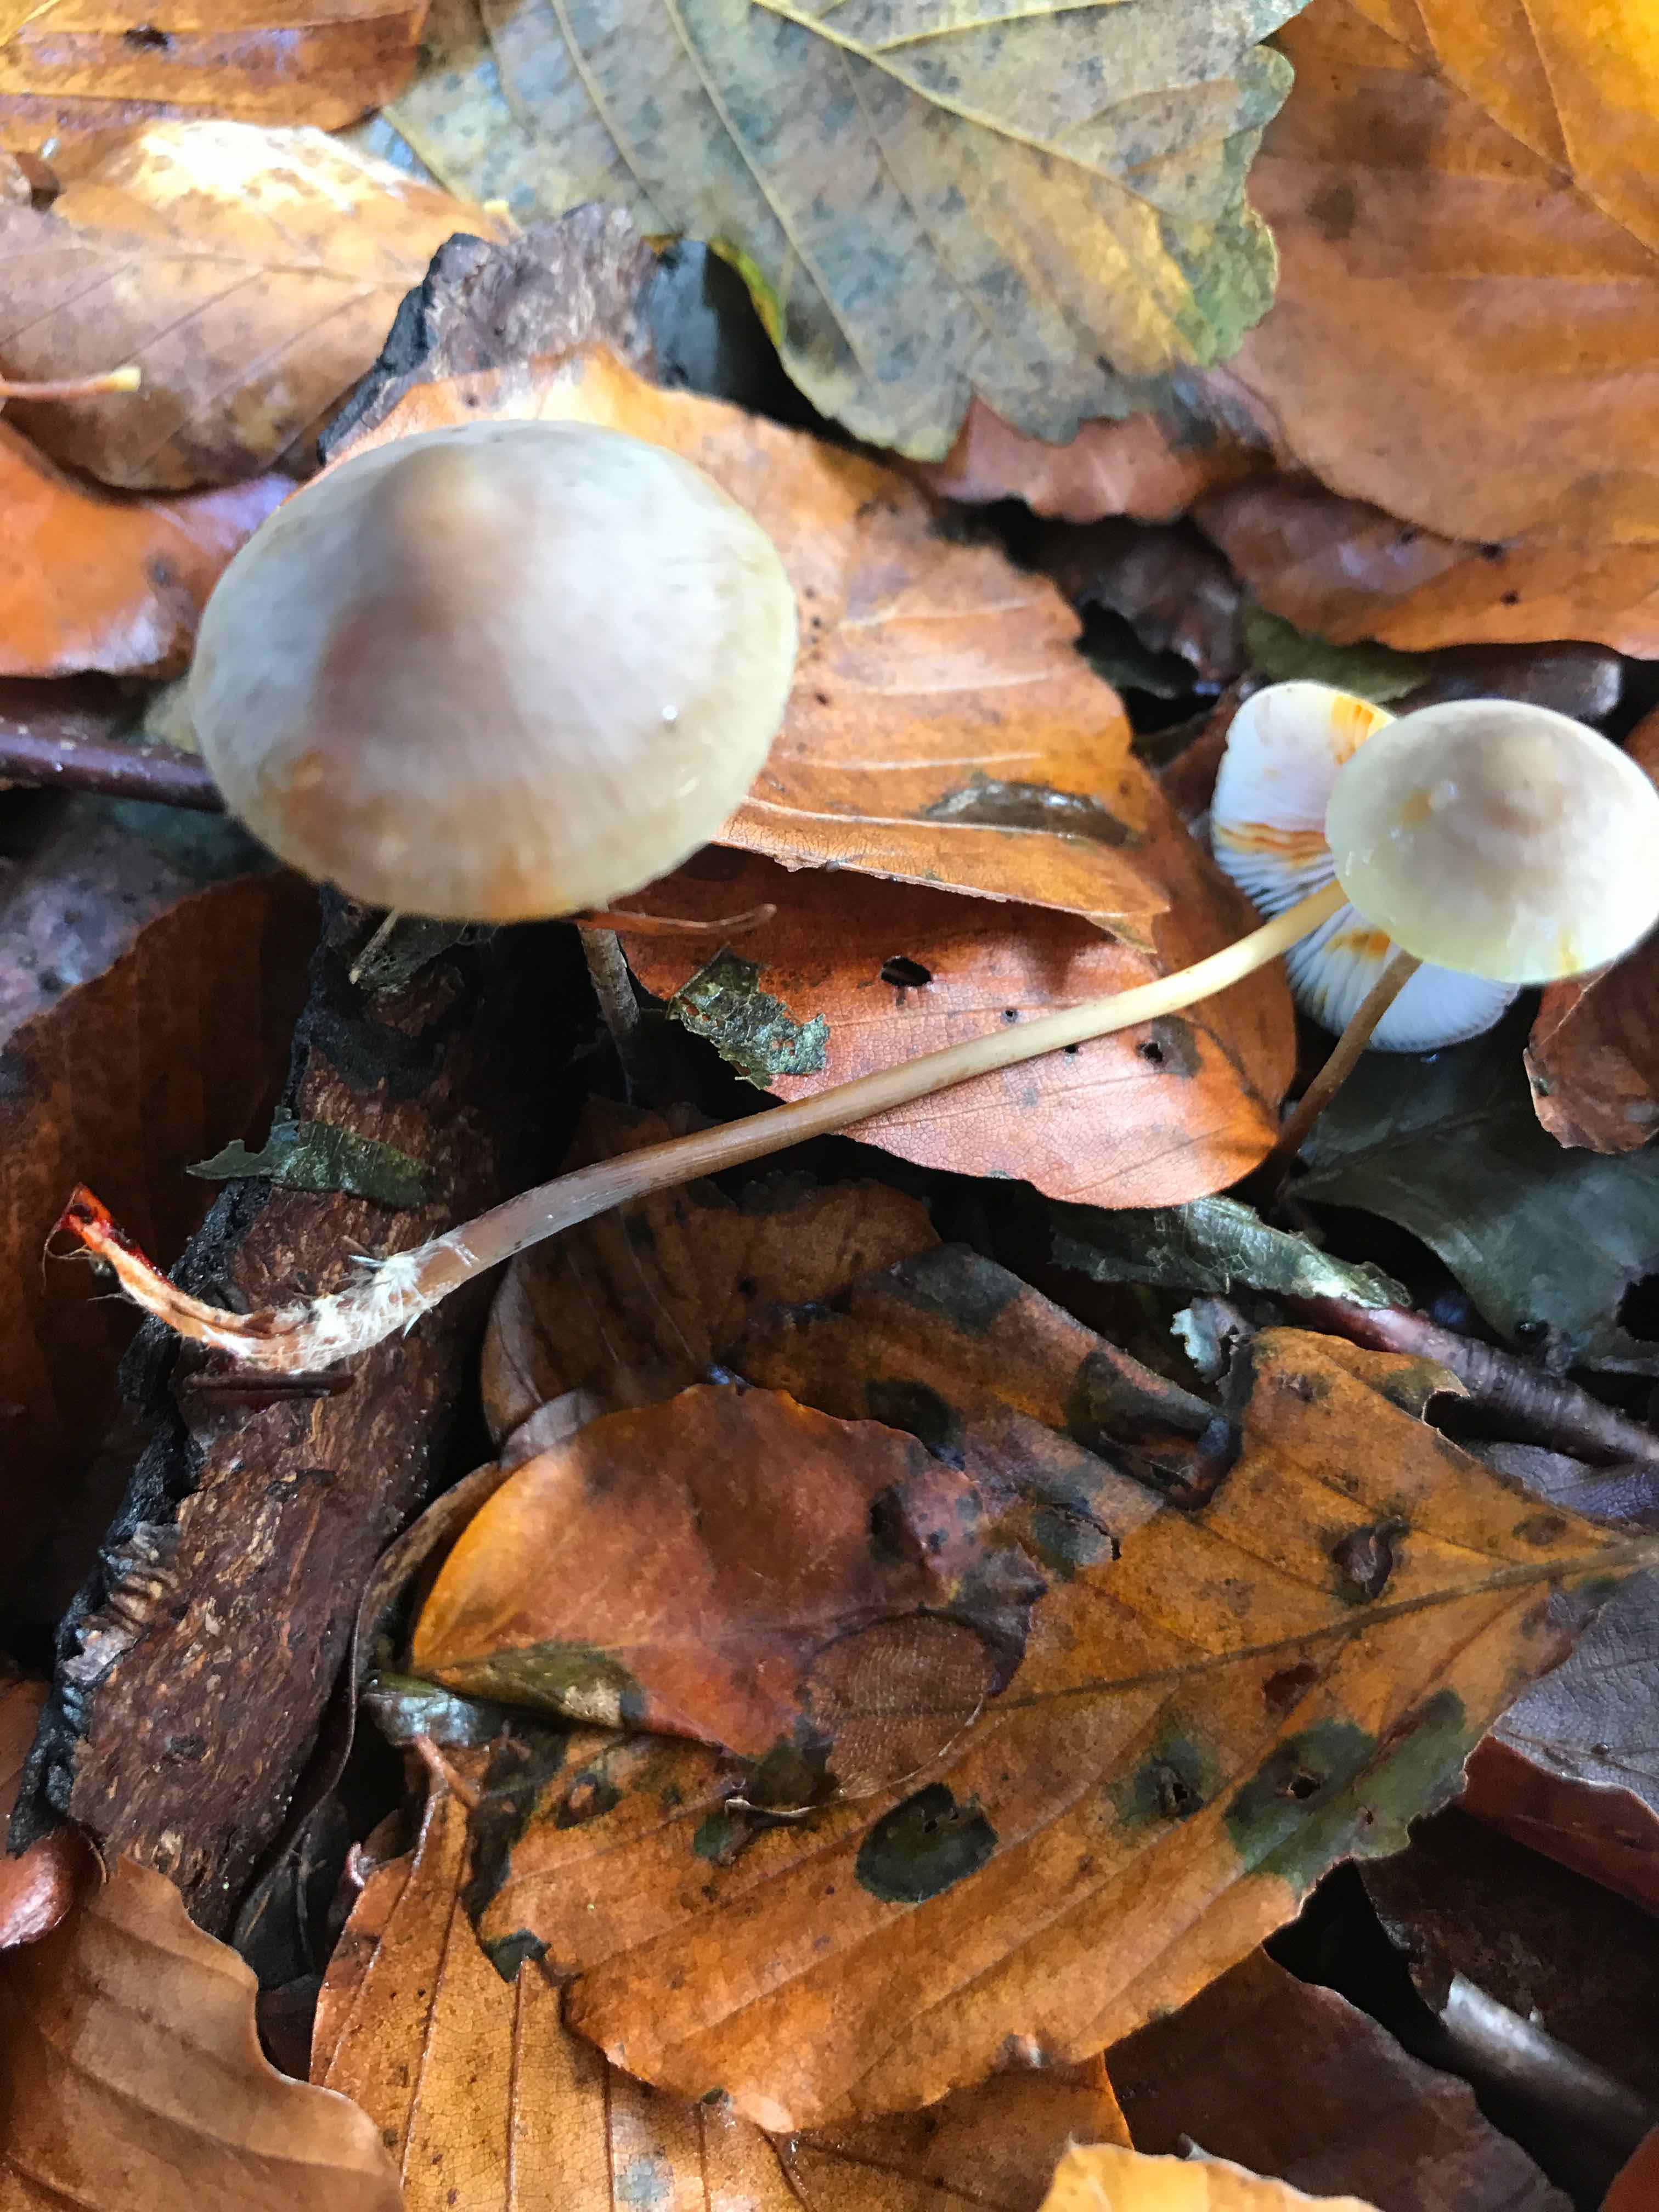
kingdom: Fungi
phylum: Basidiomycota
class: Agaricomycetes
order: Agaricales
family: Mycenaceae
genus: Mycena
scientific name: Mycena crocata
